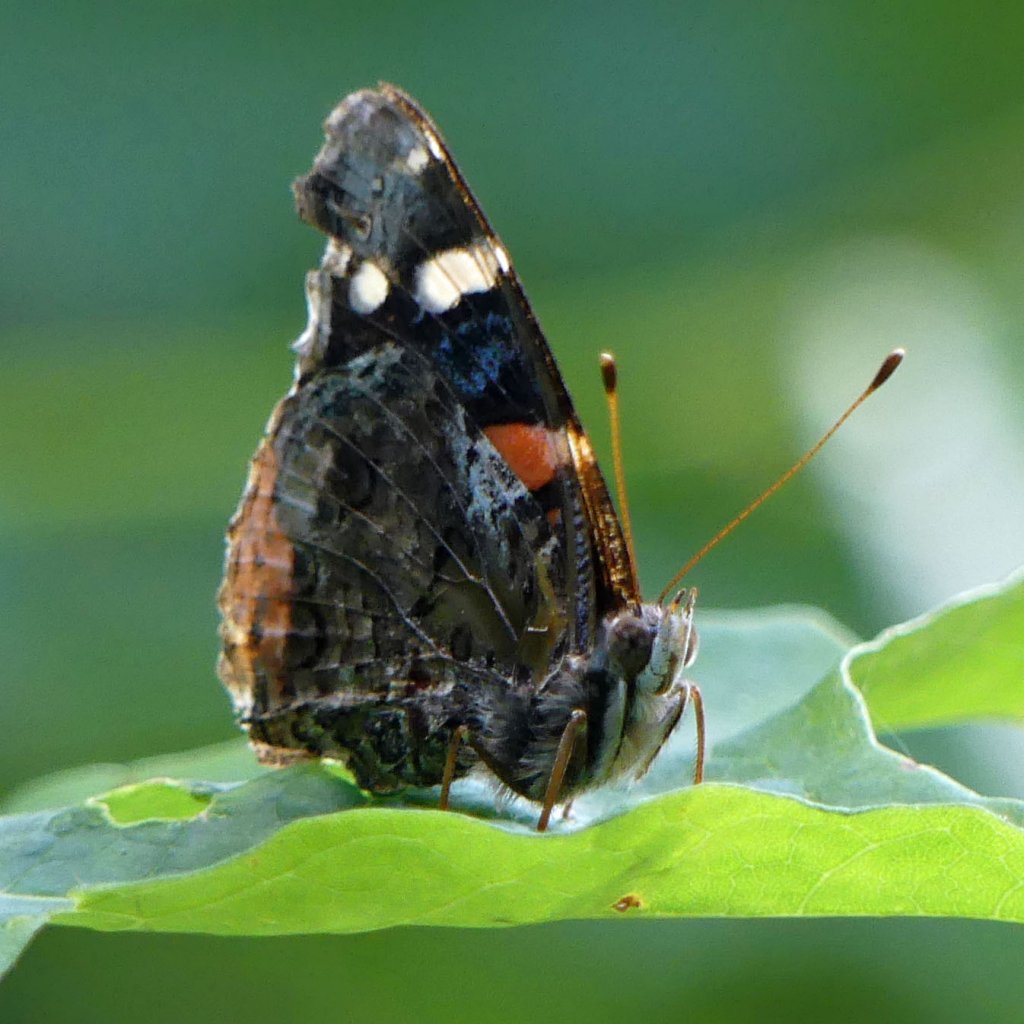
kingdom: Animalia
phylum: Arthropoda
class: Insecta
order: Lepidoptera
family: Nymphalidae
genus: Vanessa
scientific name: Vanessa atalanta
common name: Red Admiral
